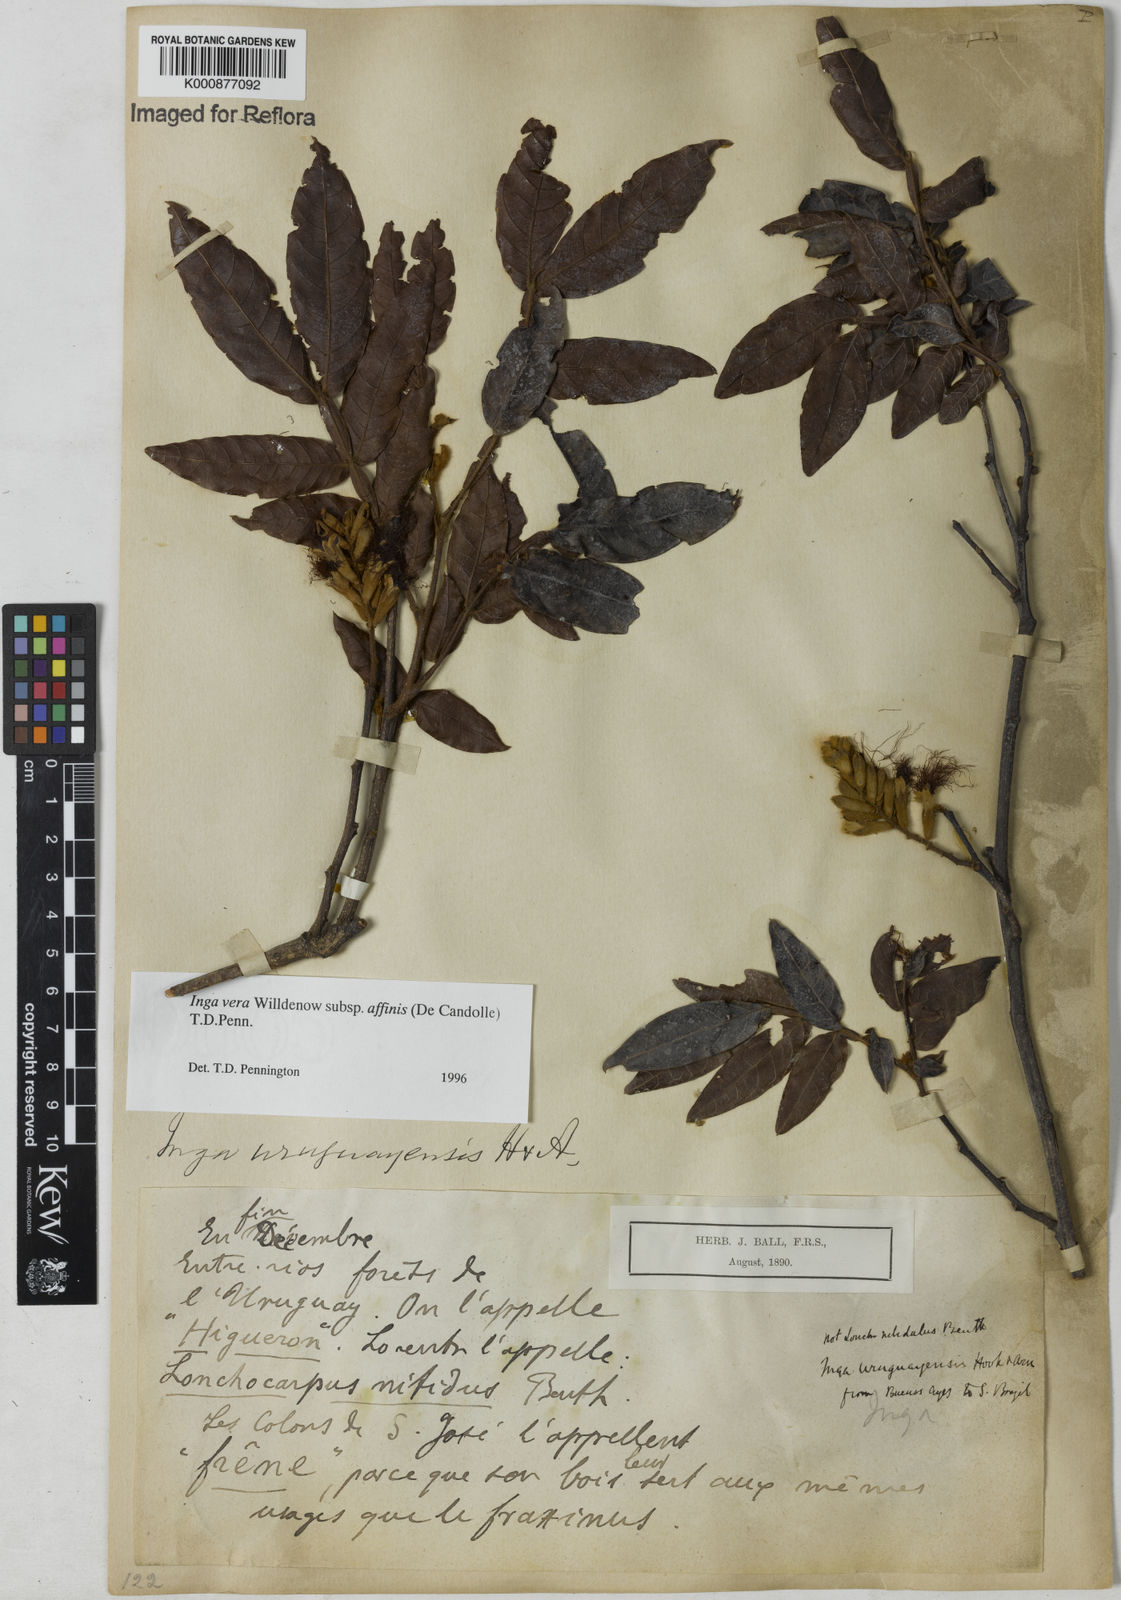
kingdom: Plantae
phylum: Tracheophyta
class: Magnoliopsida
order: Fabales
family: Fabaceae
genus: Inga
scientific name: Inga affinis
